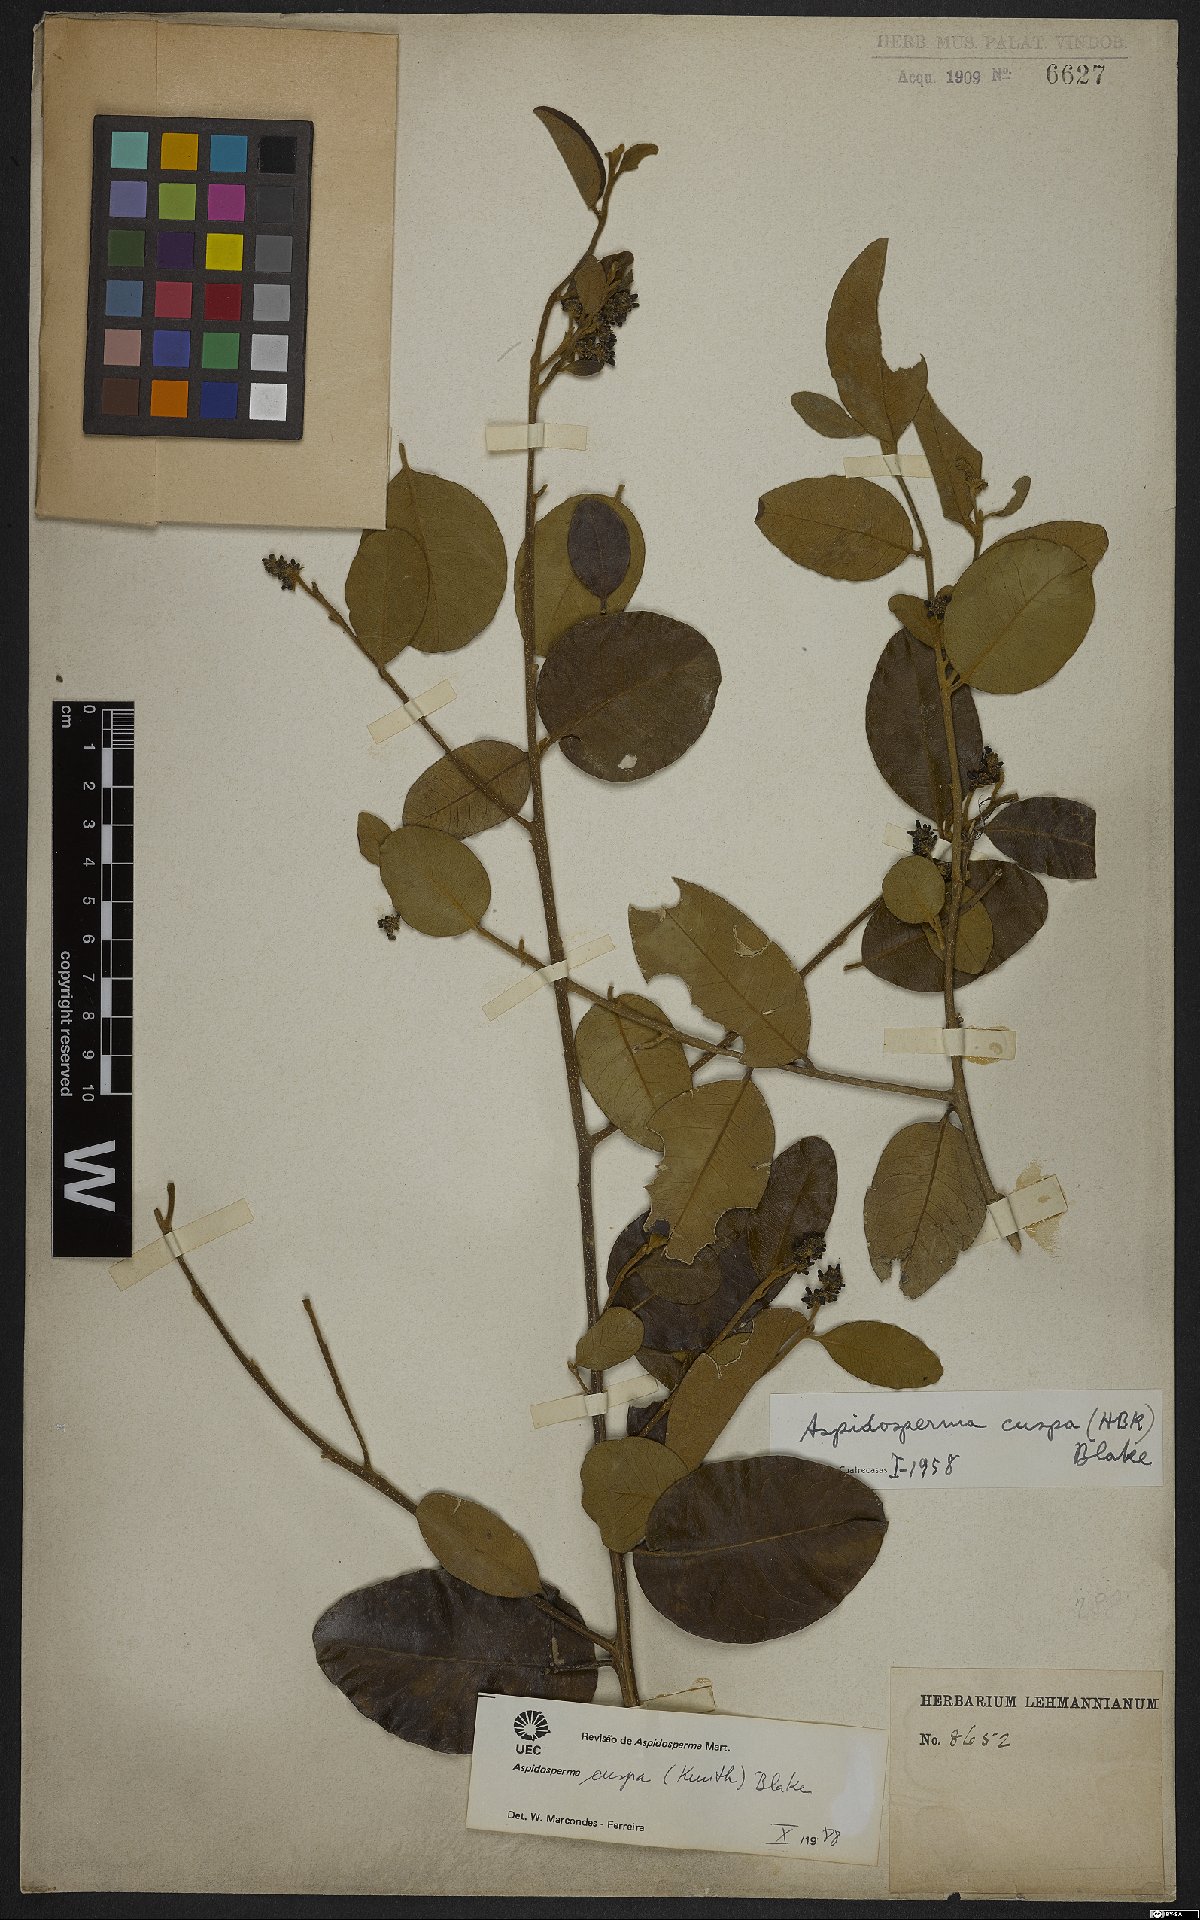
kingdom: Plantae
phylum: Tracheophyta
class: Magnoliopsida
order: Gentianales
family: Apocynaceae
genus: Aspidosperma
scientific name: Aspidosperma cuspa
